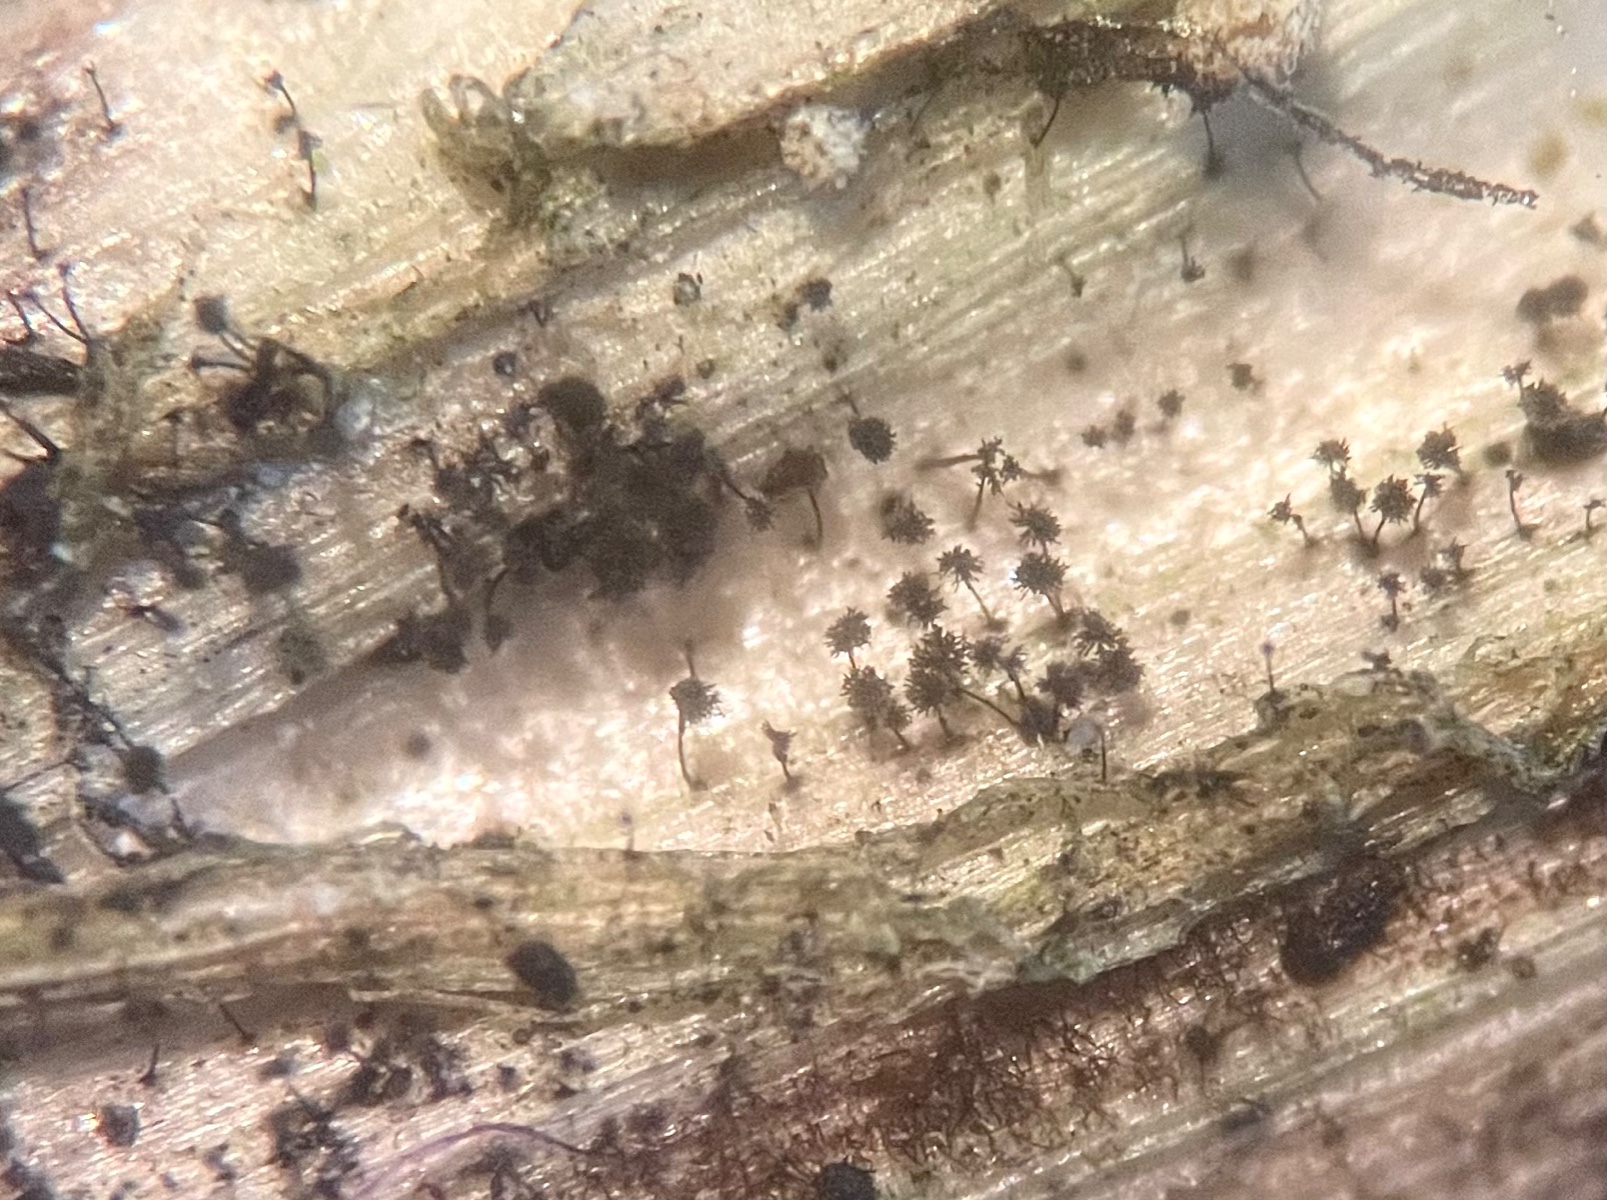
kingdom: Fungi
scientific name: Fungi
